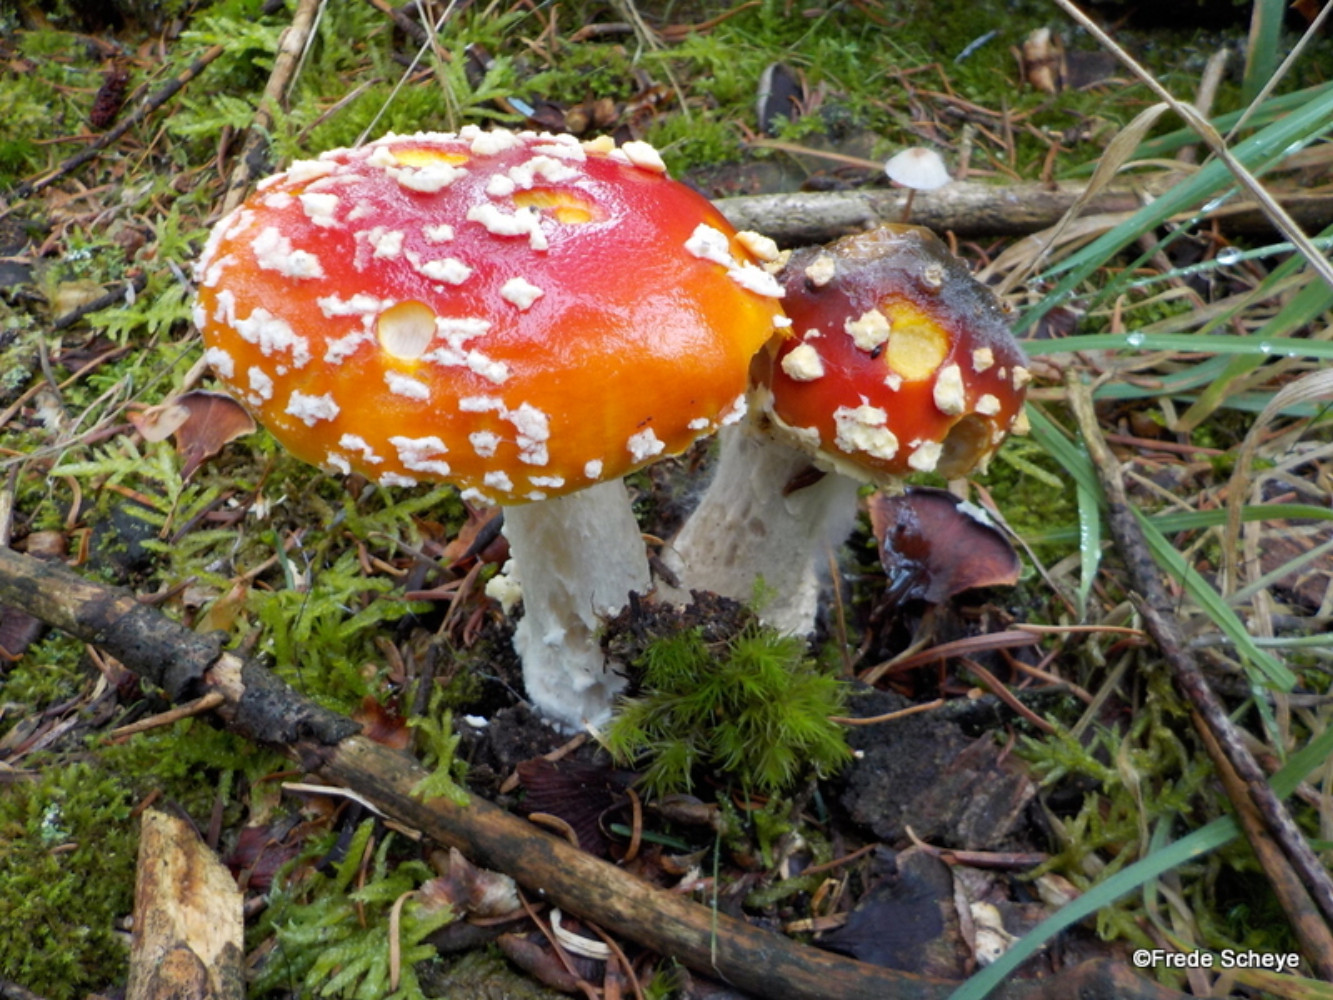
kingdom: Fungi
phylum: Basidiomycota
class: Agaricomycetes
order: Agaricales
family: Amanitaceae
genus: Amanita
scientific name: Amanita muscaria
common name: rød fluesvamp
